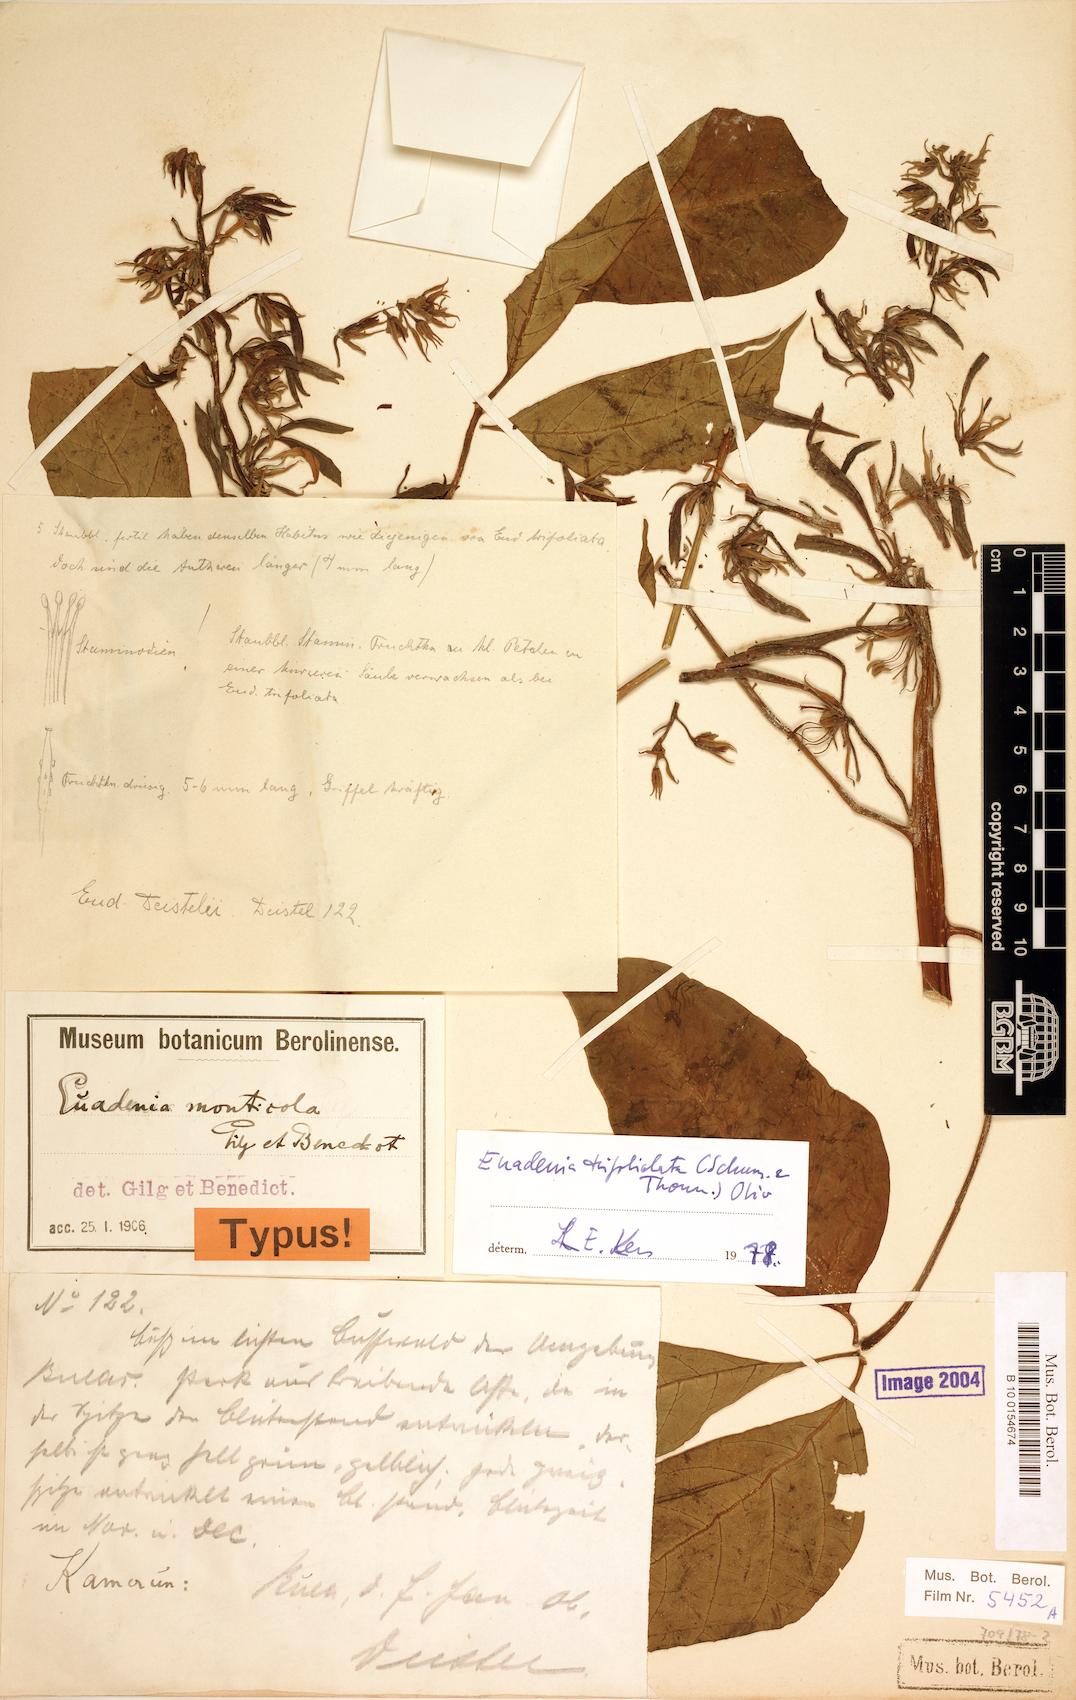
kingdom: Plantae
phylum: Tracheophyta
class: Magnoliopsida
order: Brassicales
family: Capparaceae
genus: Euadenia
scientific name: Euadenia trifoliolata
